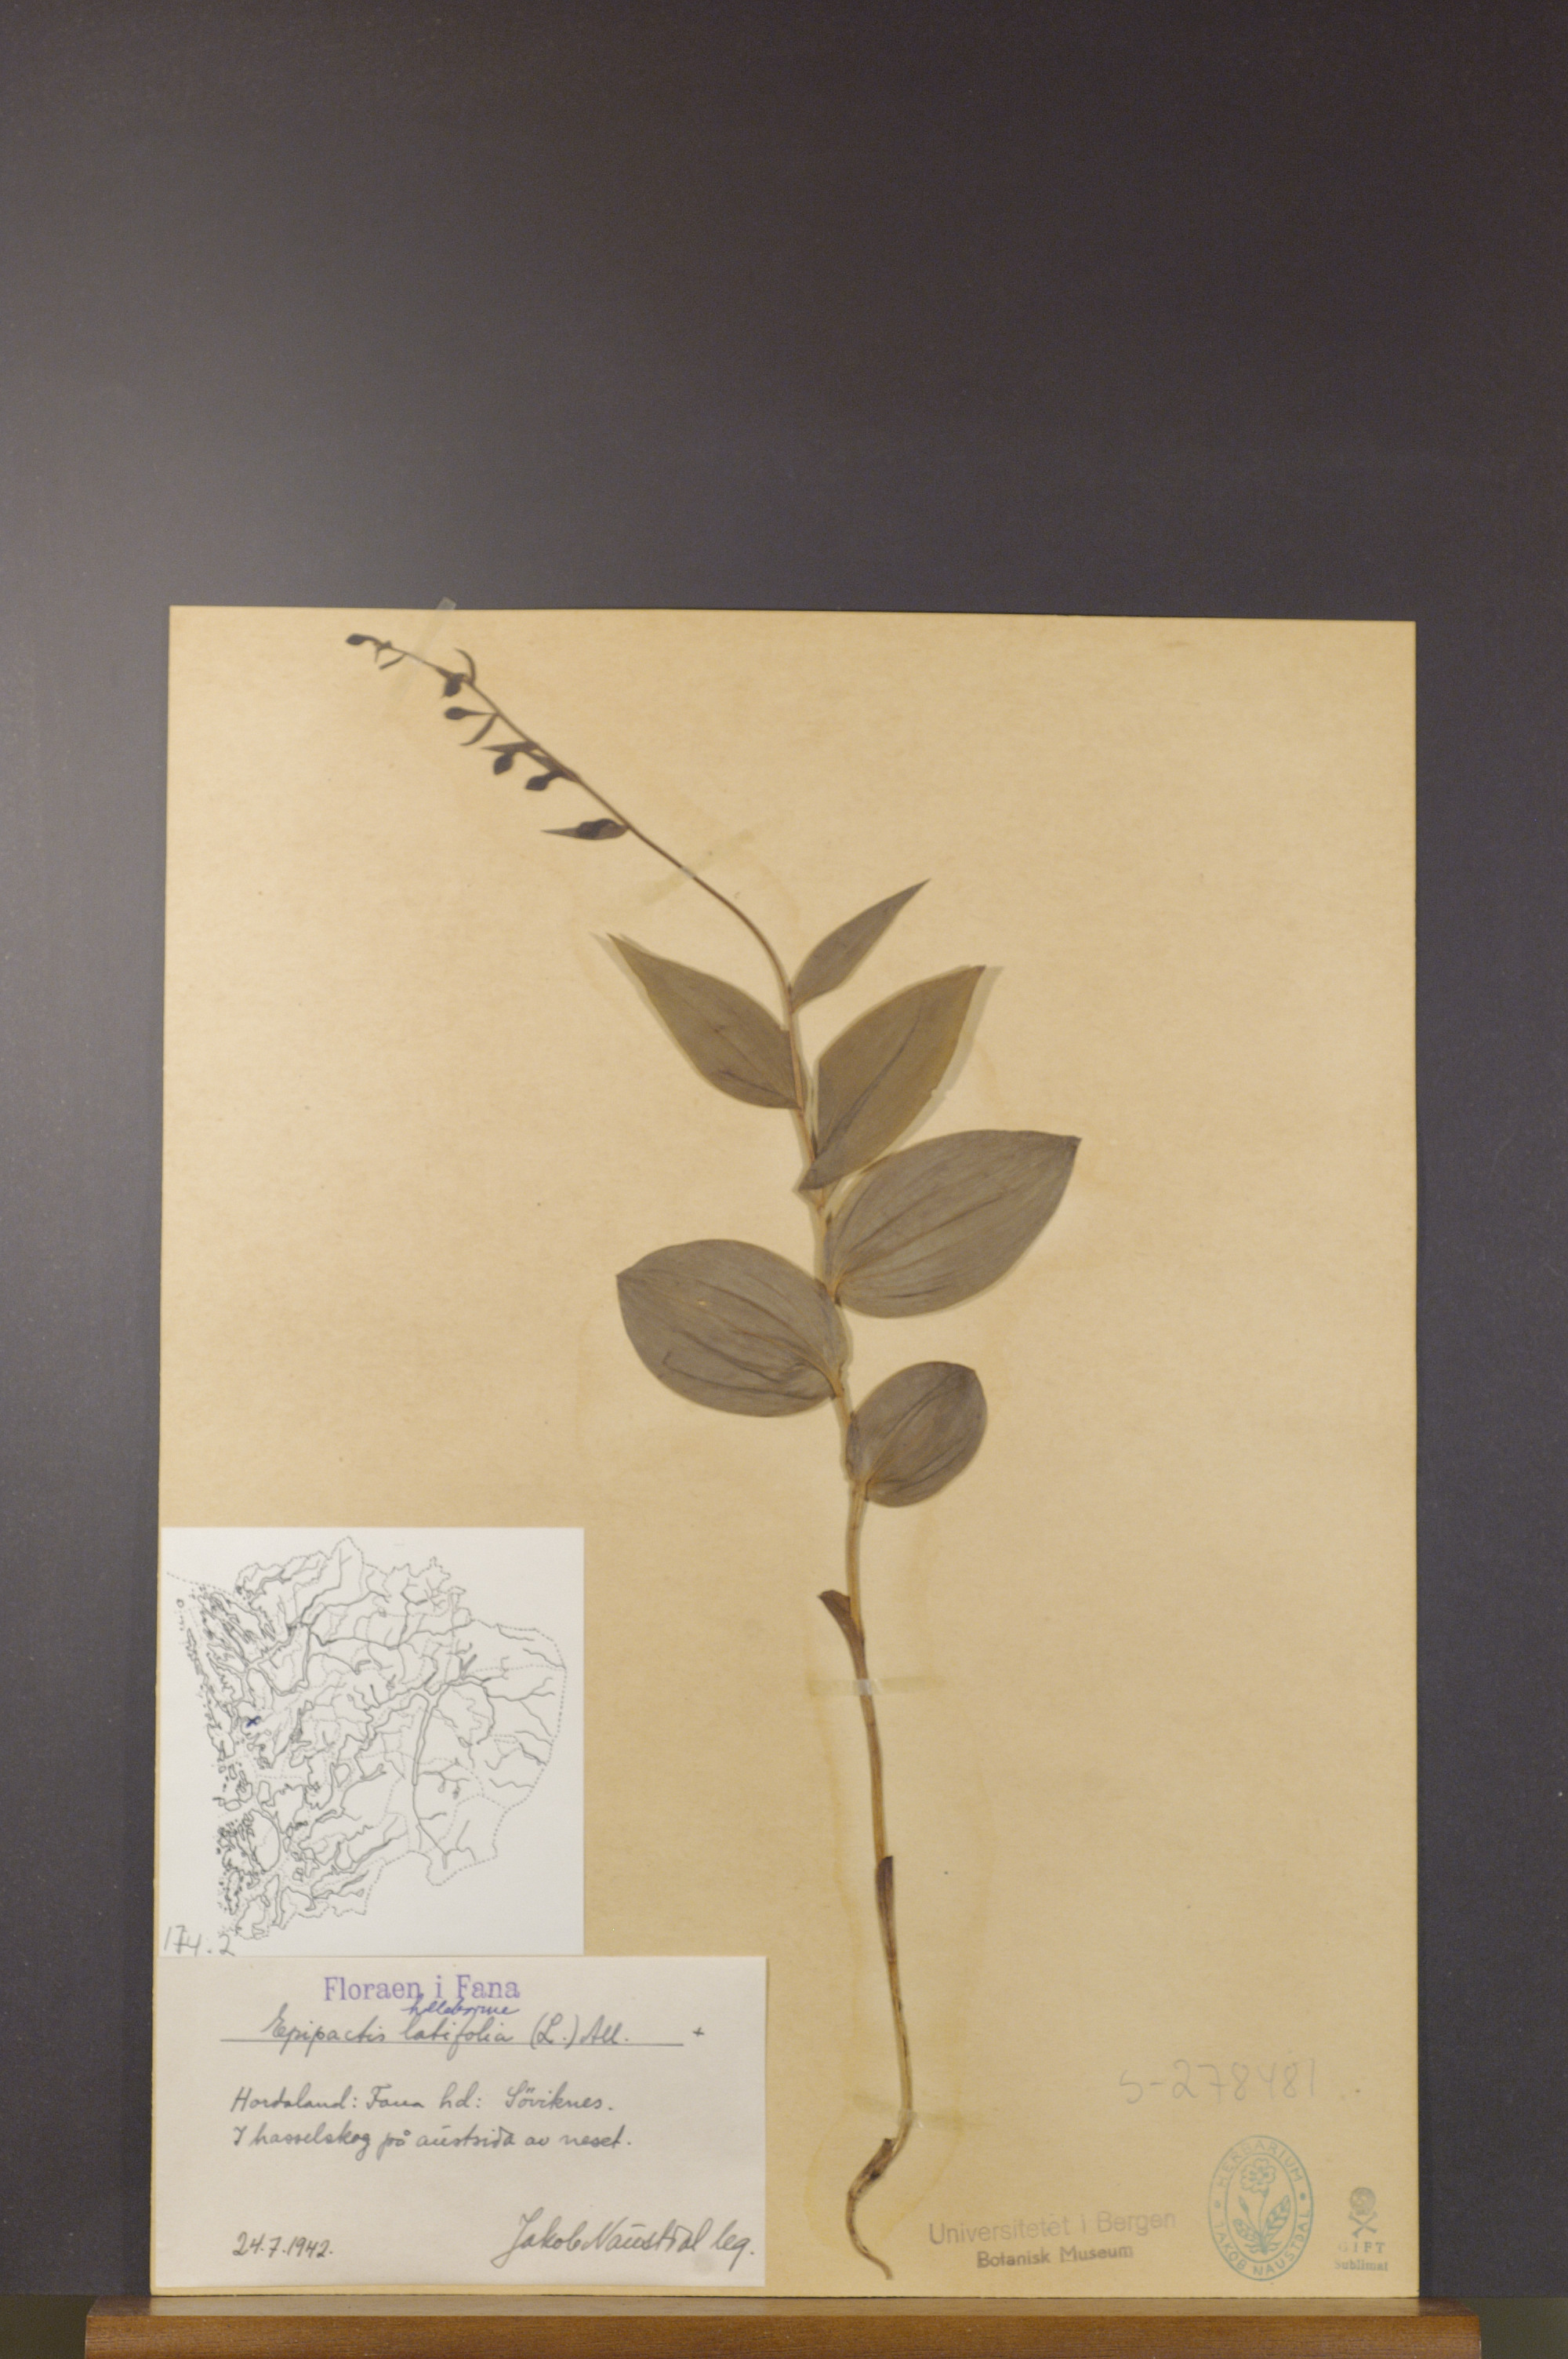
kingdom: Plantae
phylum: Tracheophyta
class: Liliopsida
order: Asparagales
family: Orchidaceae
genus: Epipactis
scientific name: Epipactis helleborine
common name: Broad-leaved helleborine
